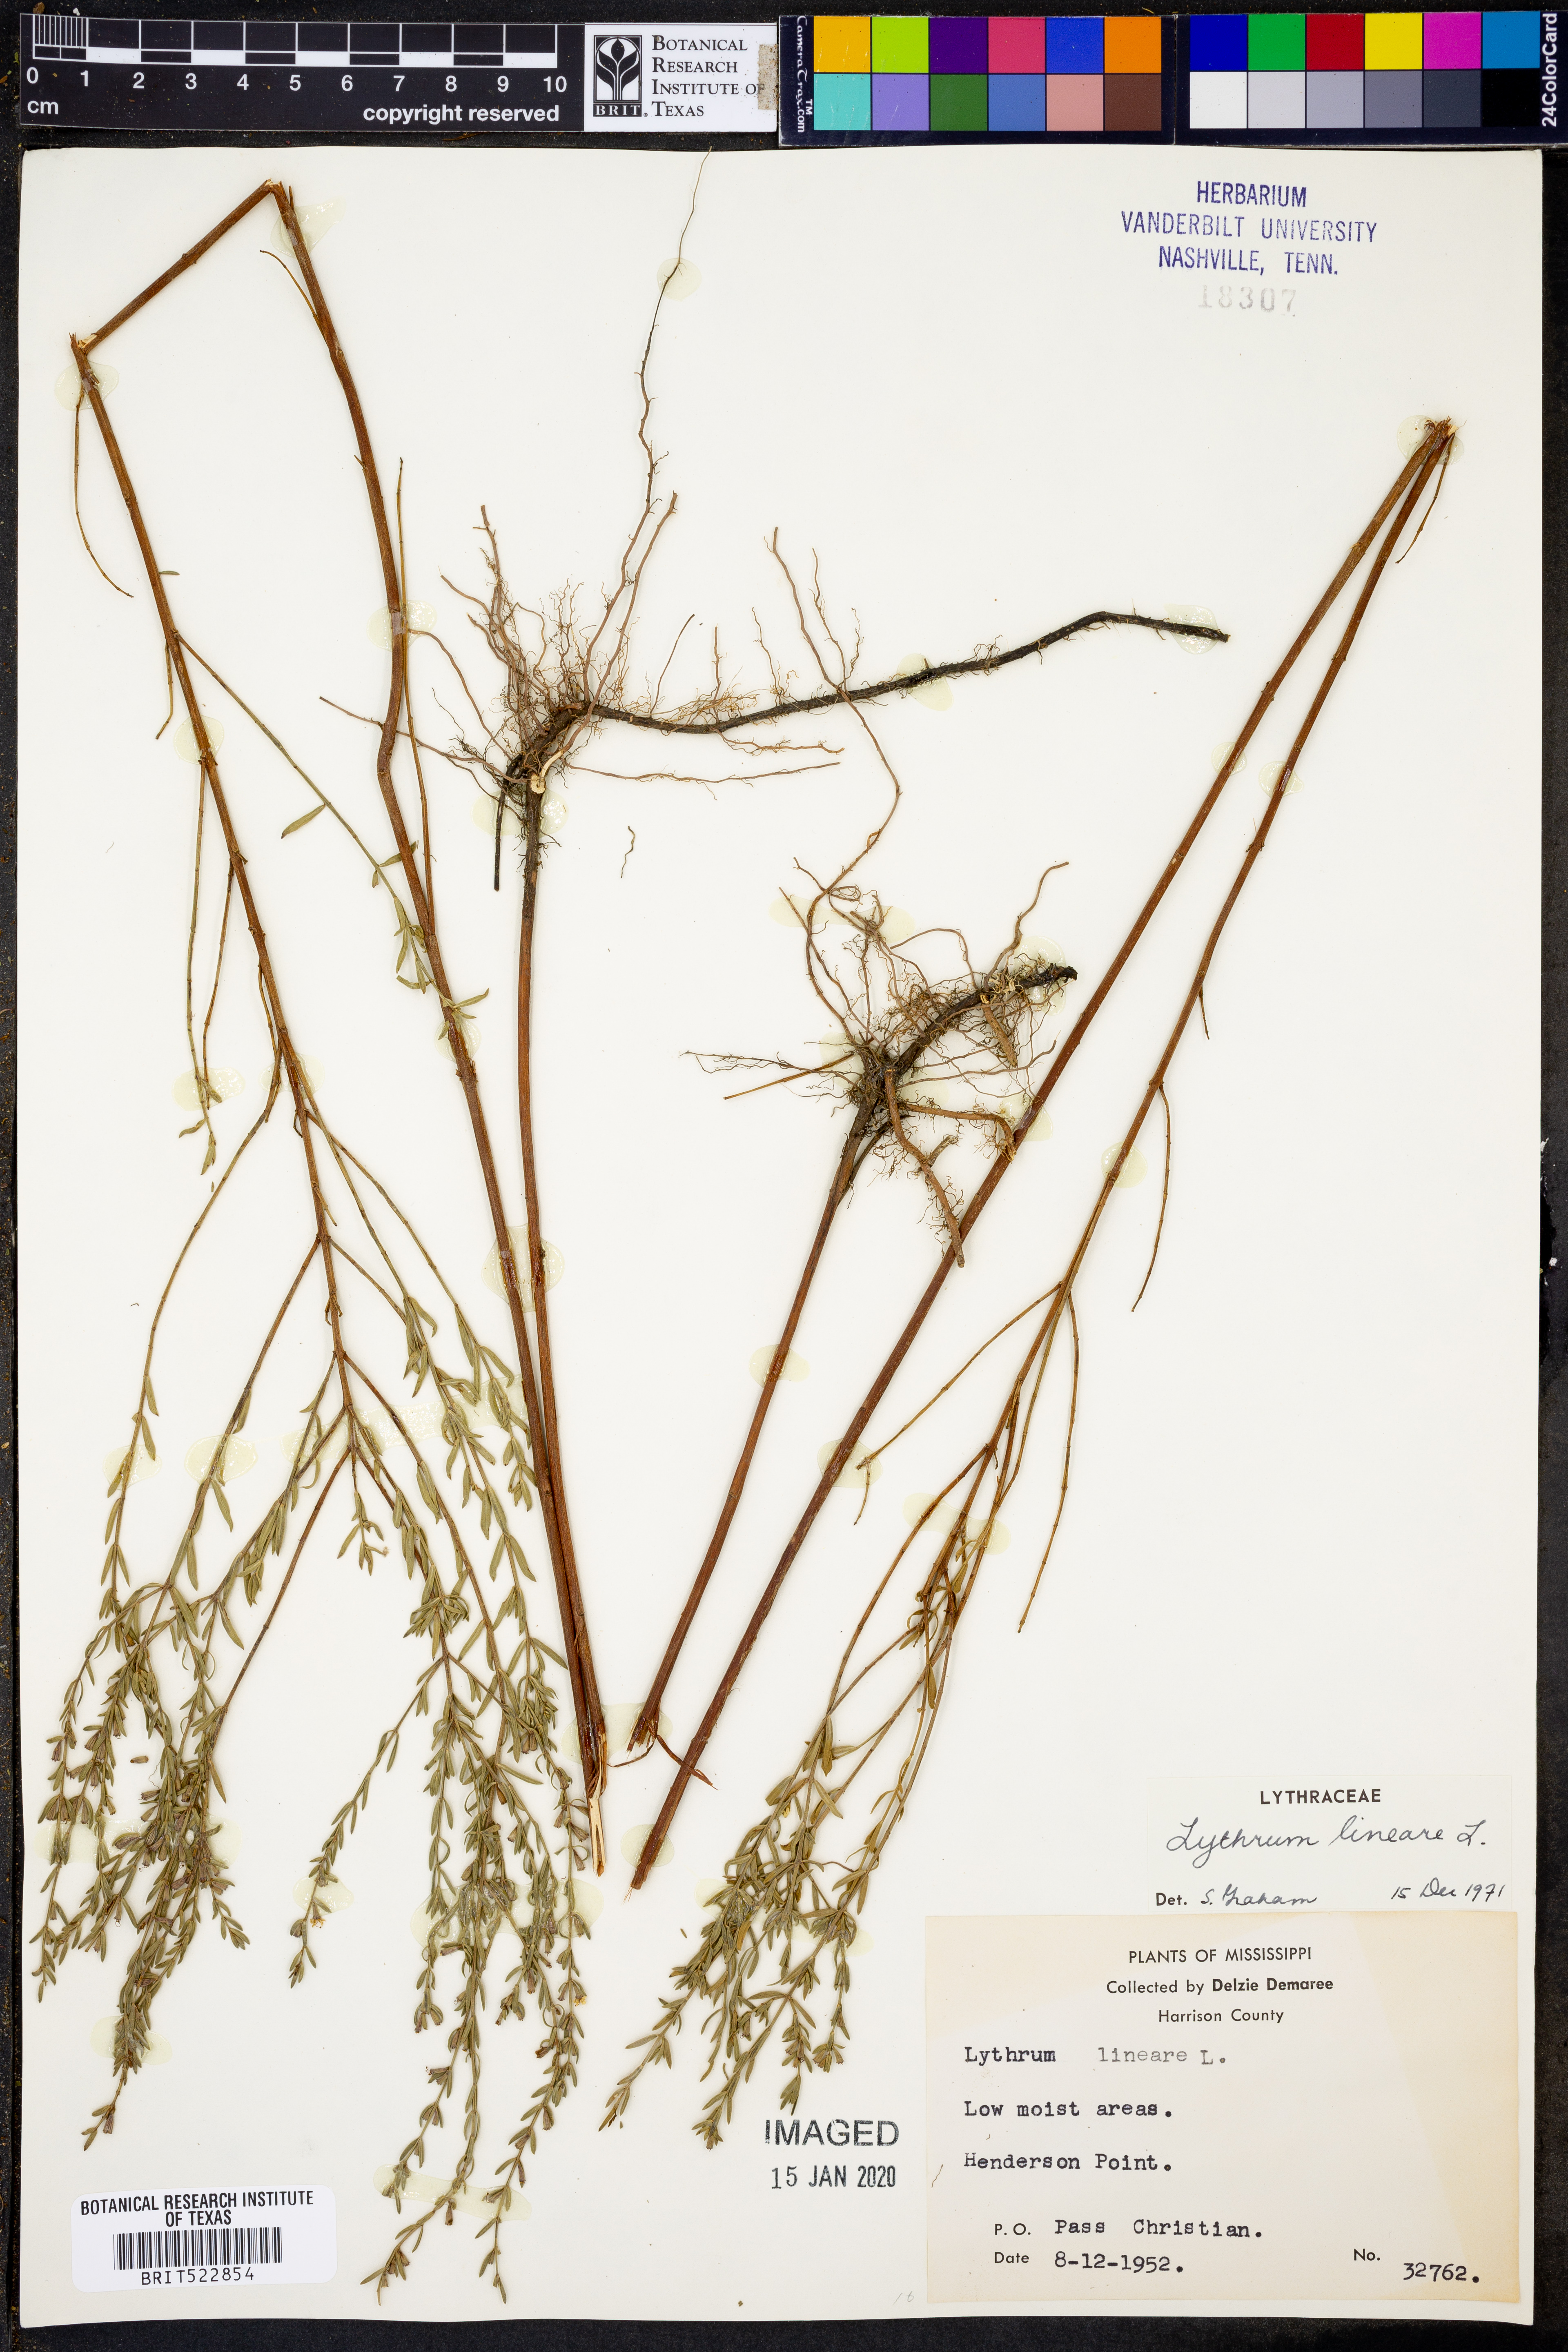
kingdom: Plantae
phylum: Tracheophyta
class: Magnoliopsida
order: Myrtales
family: Lythraceae
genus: Lythrum
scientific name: Lythrum lineare
